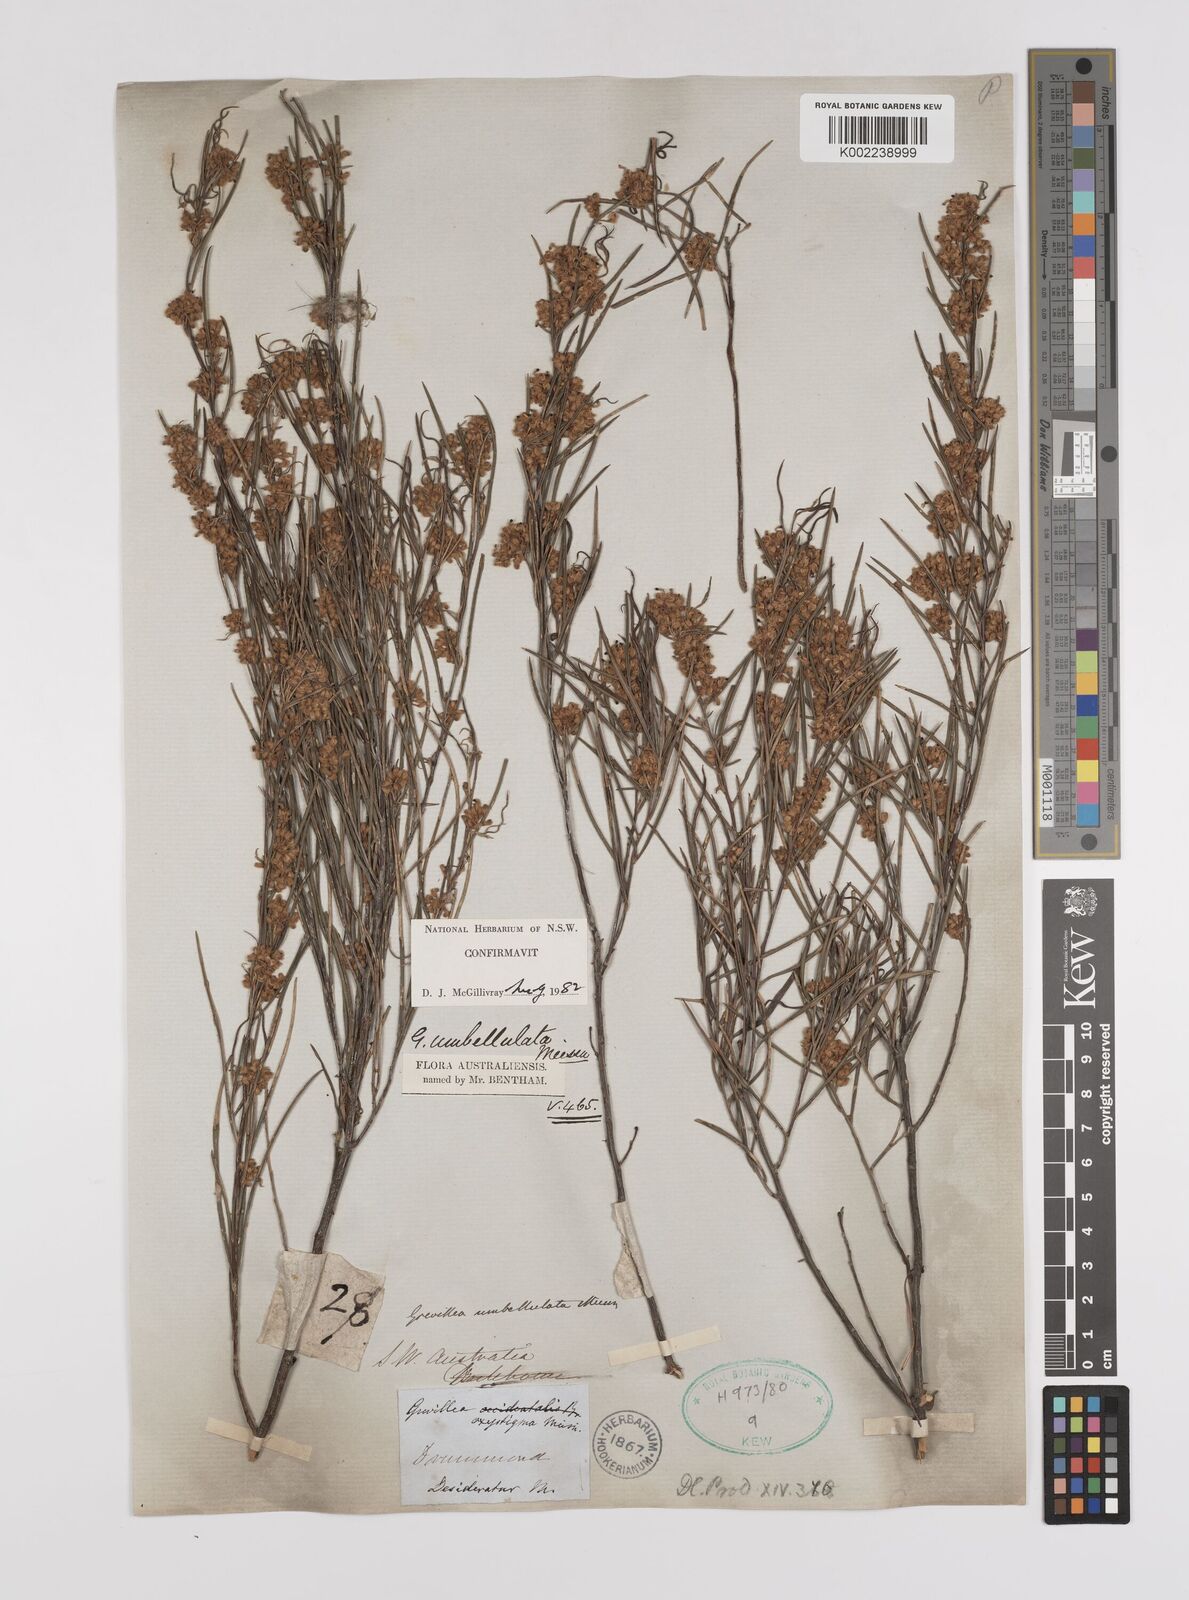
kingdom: Plantae
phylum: Tracheophyta
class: Magnoliopsida
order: Proteales
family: Proteaceae
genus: Grevillea
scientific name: Grevillea umbellulata
